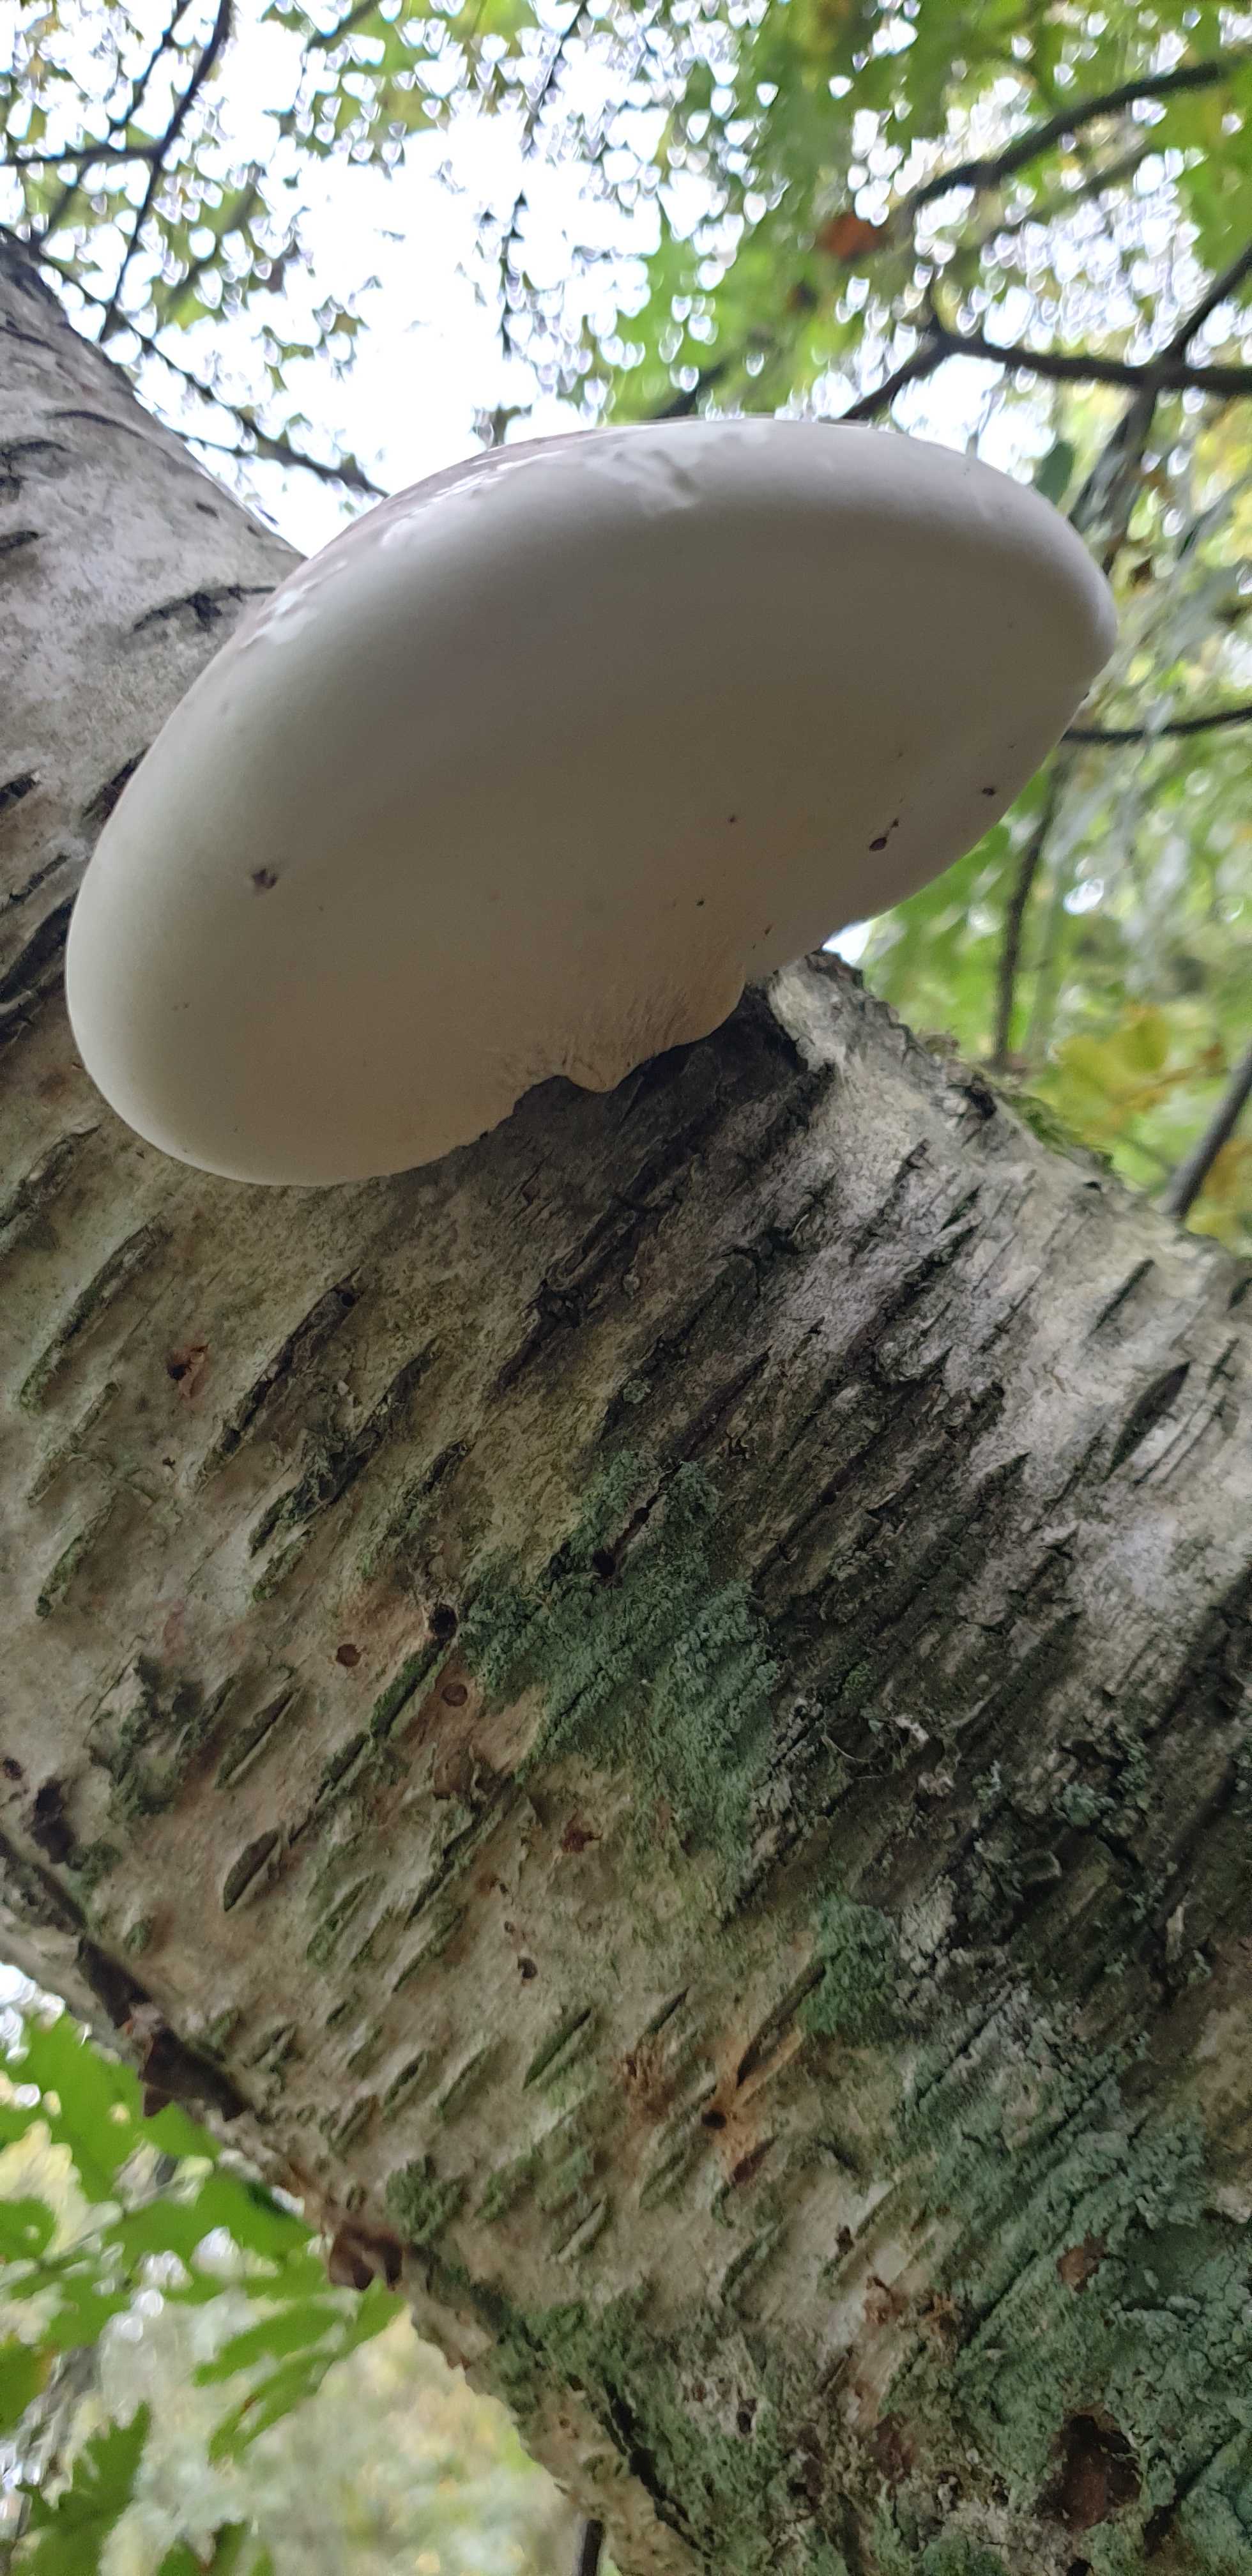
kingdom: Fungi
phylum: Basidiomycota
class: Agaricomycetes
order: Polyporales
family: Fomitopsidaceae
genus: Fomitopsis
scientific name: Fomitopsis betulina
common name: birkeporesvamp
